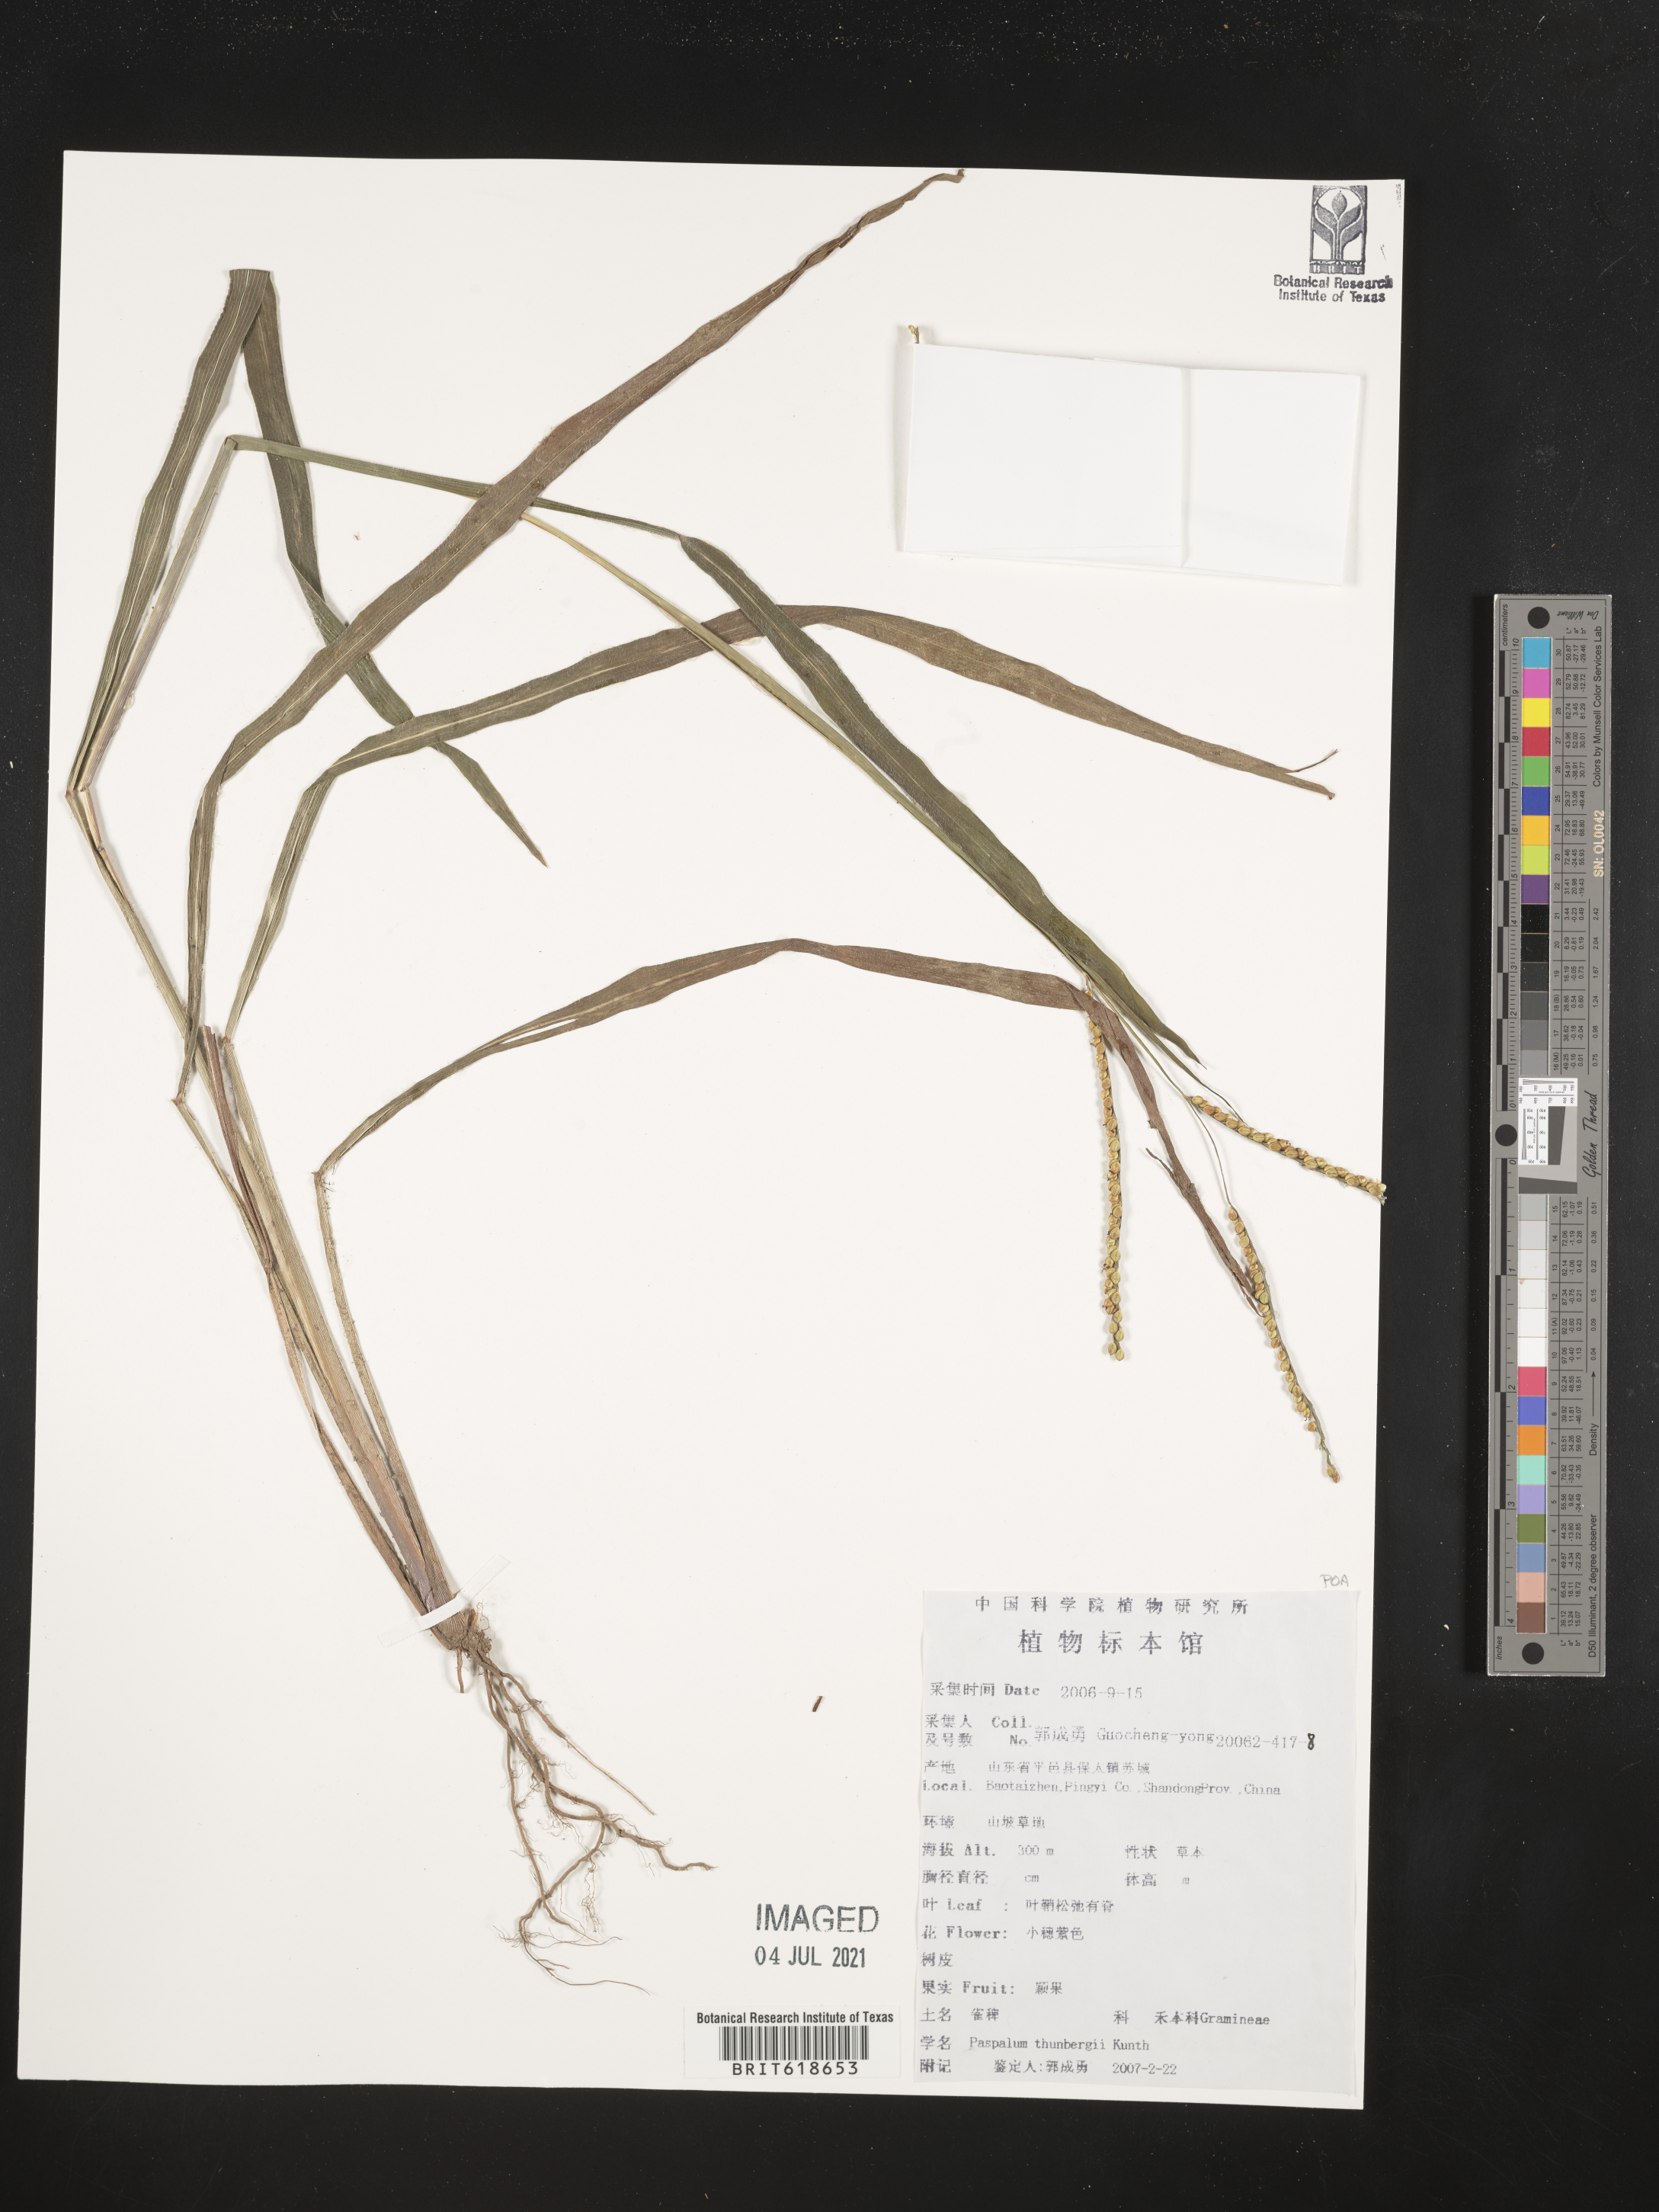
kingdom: Plantae
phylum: Tracheophyta
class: Liliopsida
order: Poales
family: Poaceae
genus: Paspalum
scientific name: Paspalum thunbergii
